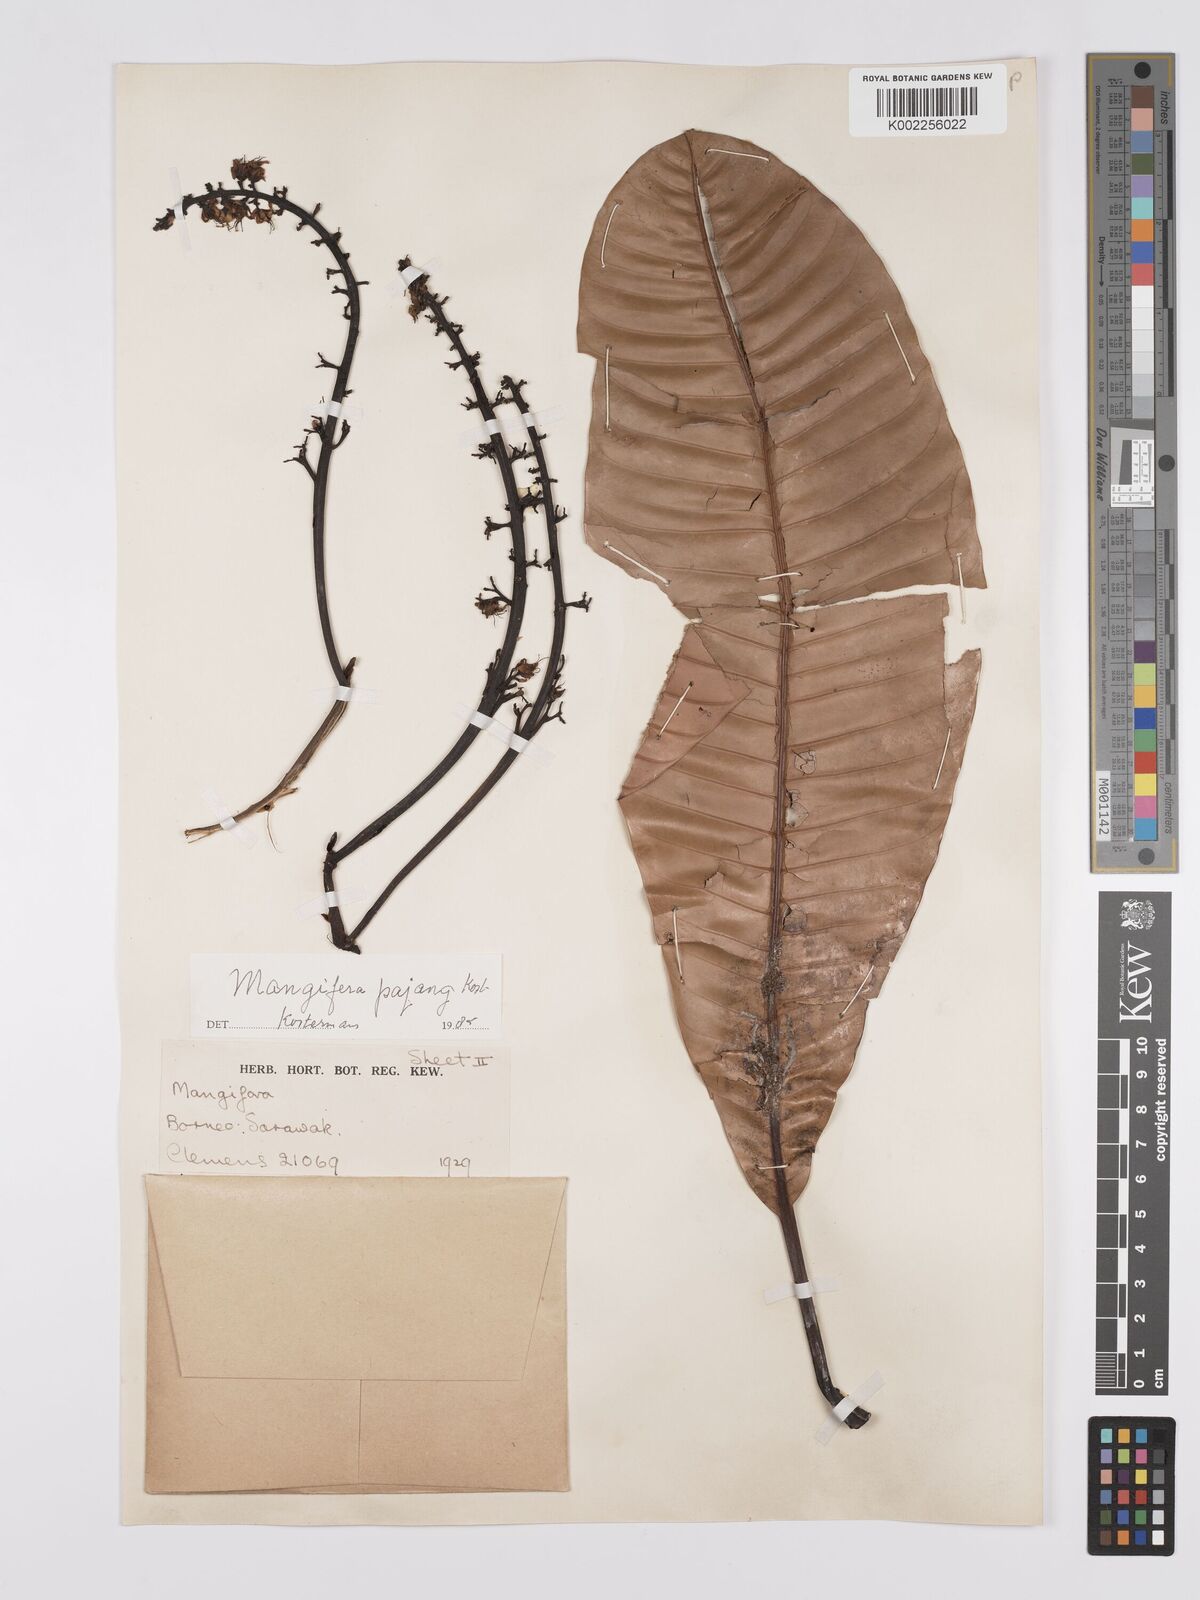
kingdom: Plantae
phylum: Tracheophyta
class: Magnoliopsida
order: Sapindales
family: Anacardiaceae
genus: Mangifera
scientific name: Mangifera pajang
